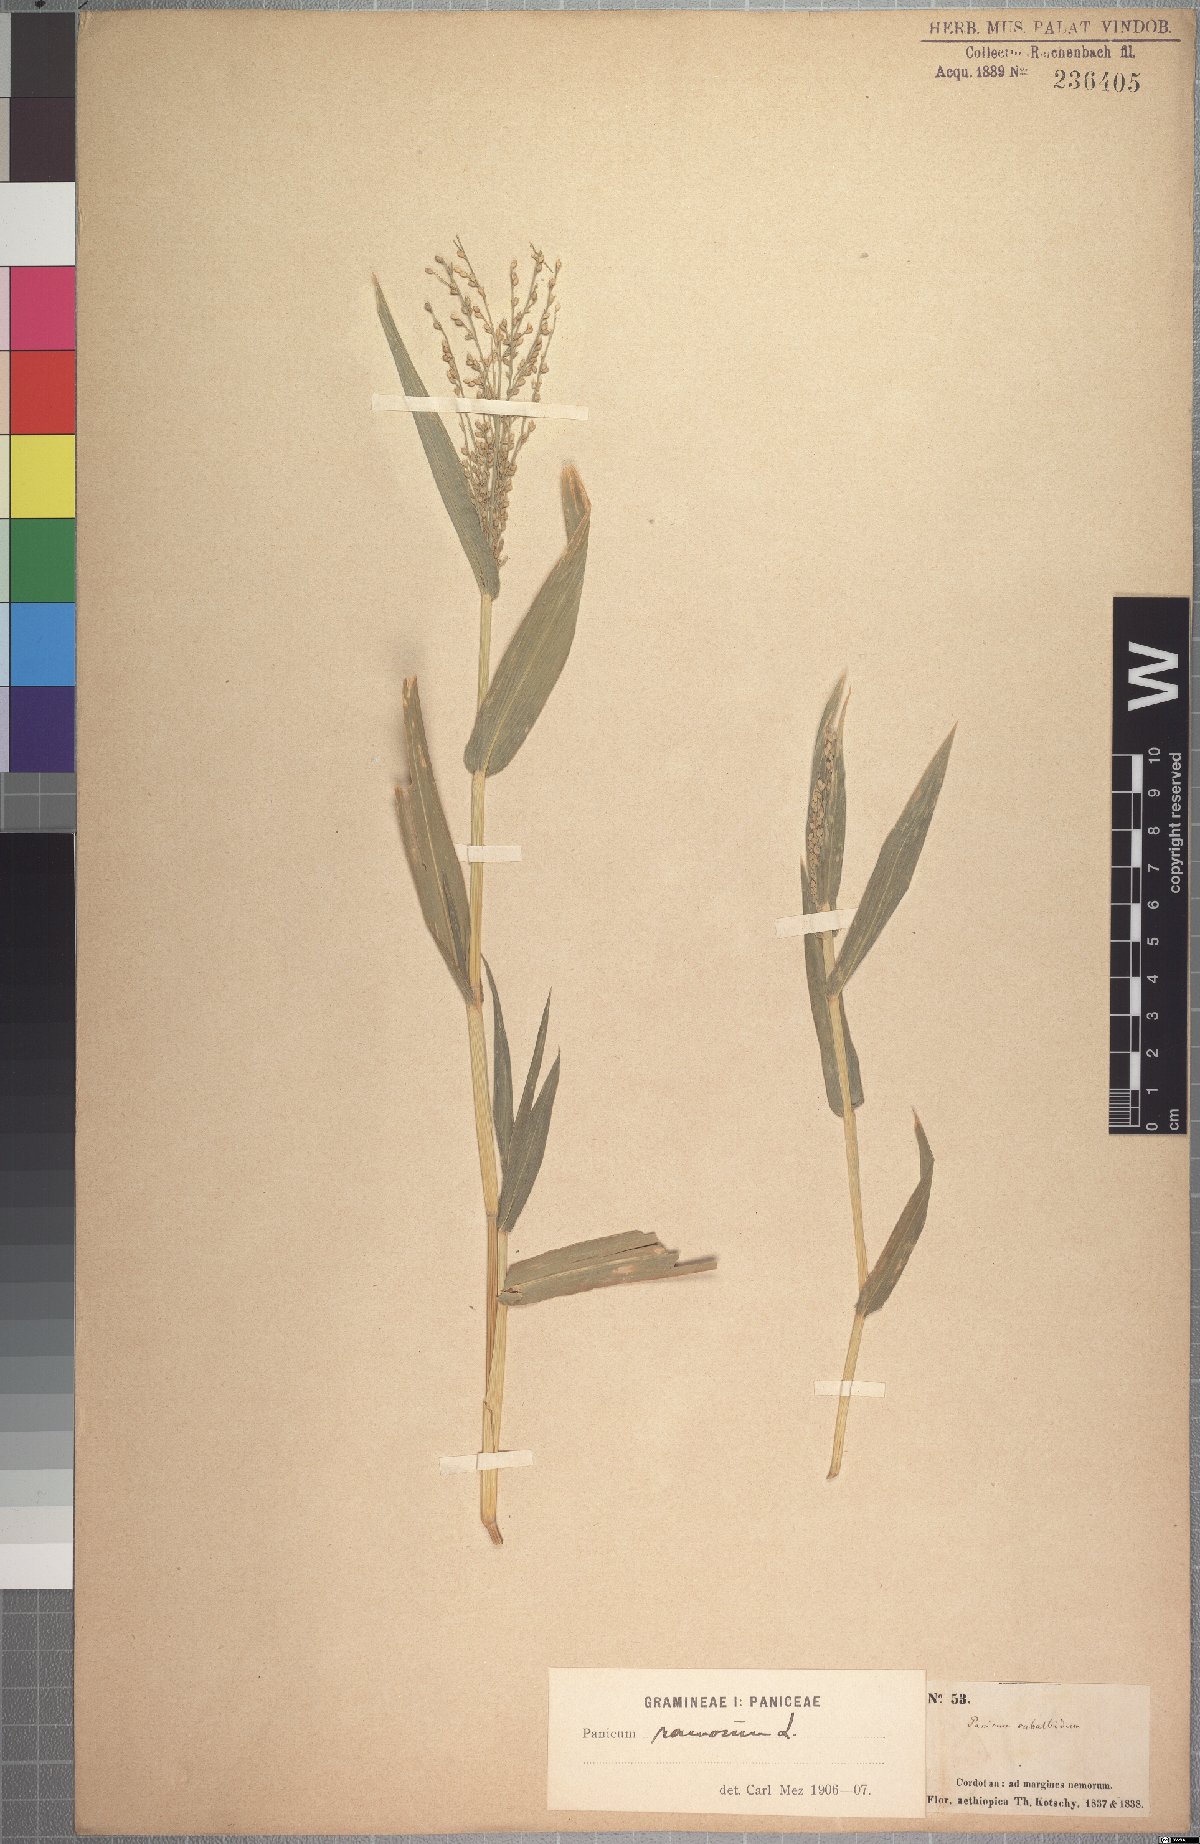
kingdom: Plantae
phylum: Tracheophyta
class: Liliopsida
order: Poales
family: Poaceae
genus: Urochloa
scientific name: Urochloa deflexa
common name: Guinea millet
